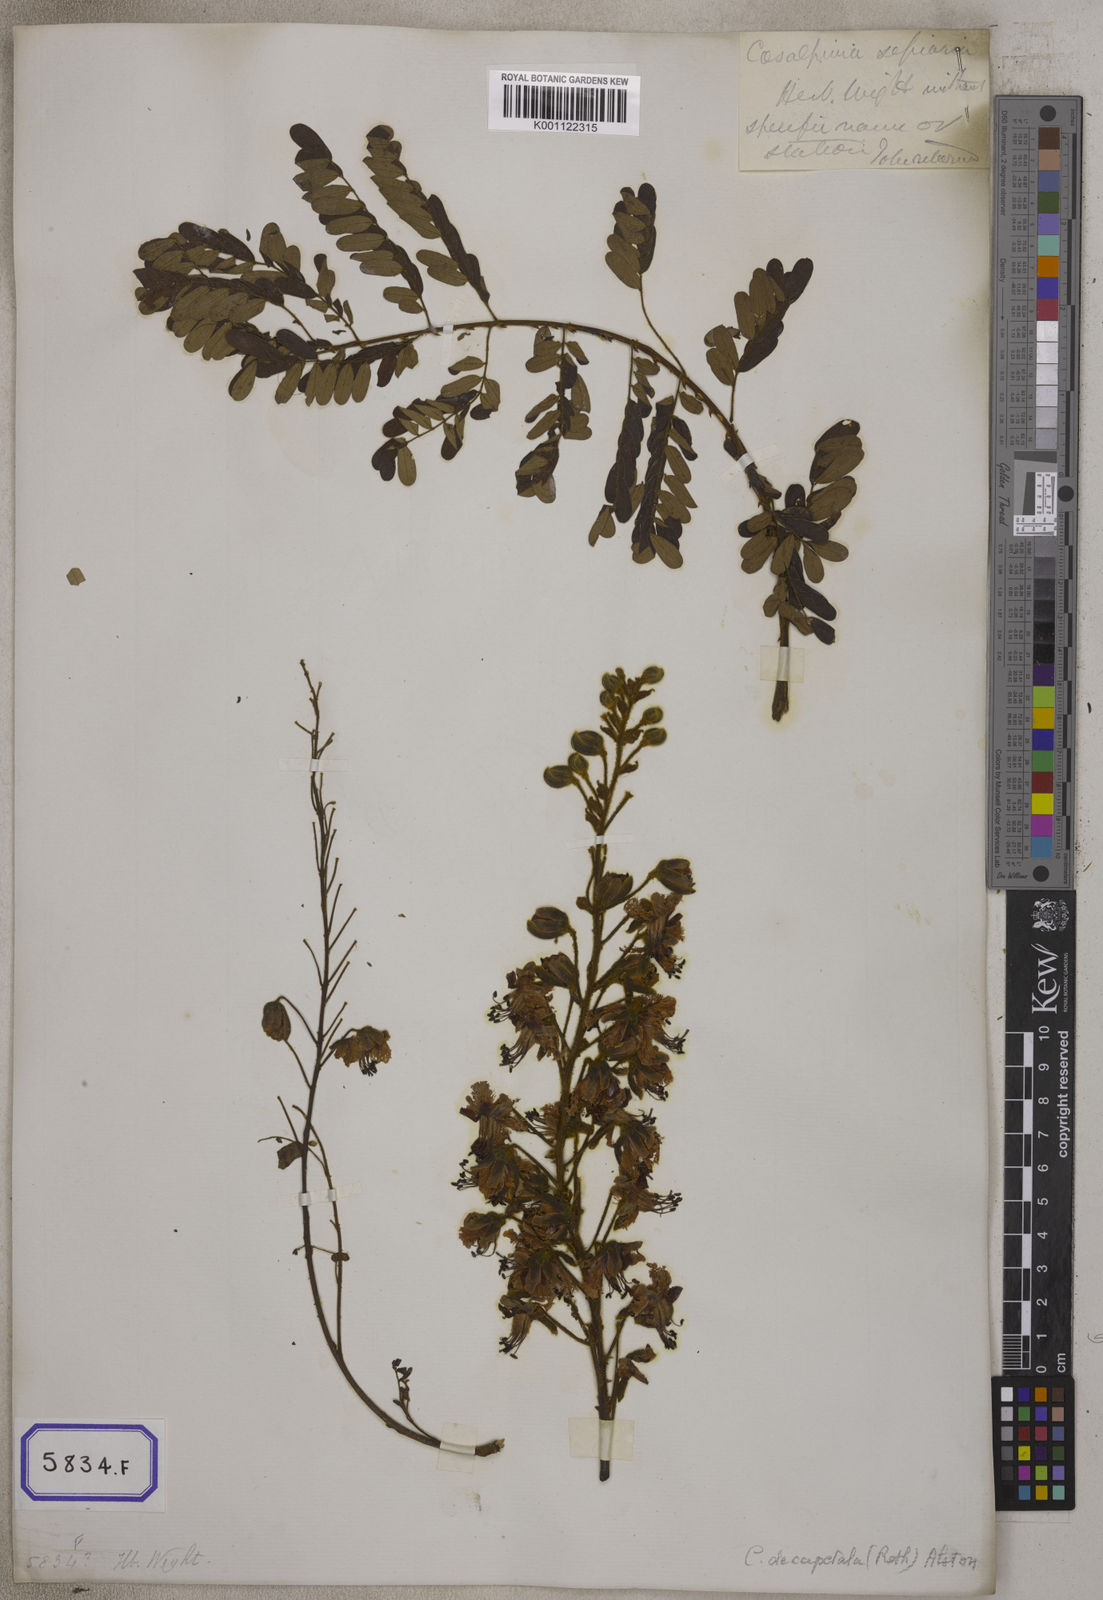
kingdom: Plantae
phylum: Tracheophyta
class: Magnoliopsida
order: Fabales
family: Fabaceae
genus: Caesalpinia
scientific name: Caesalpinia
